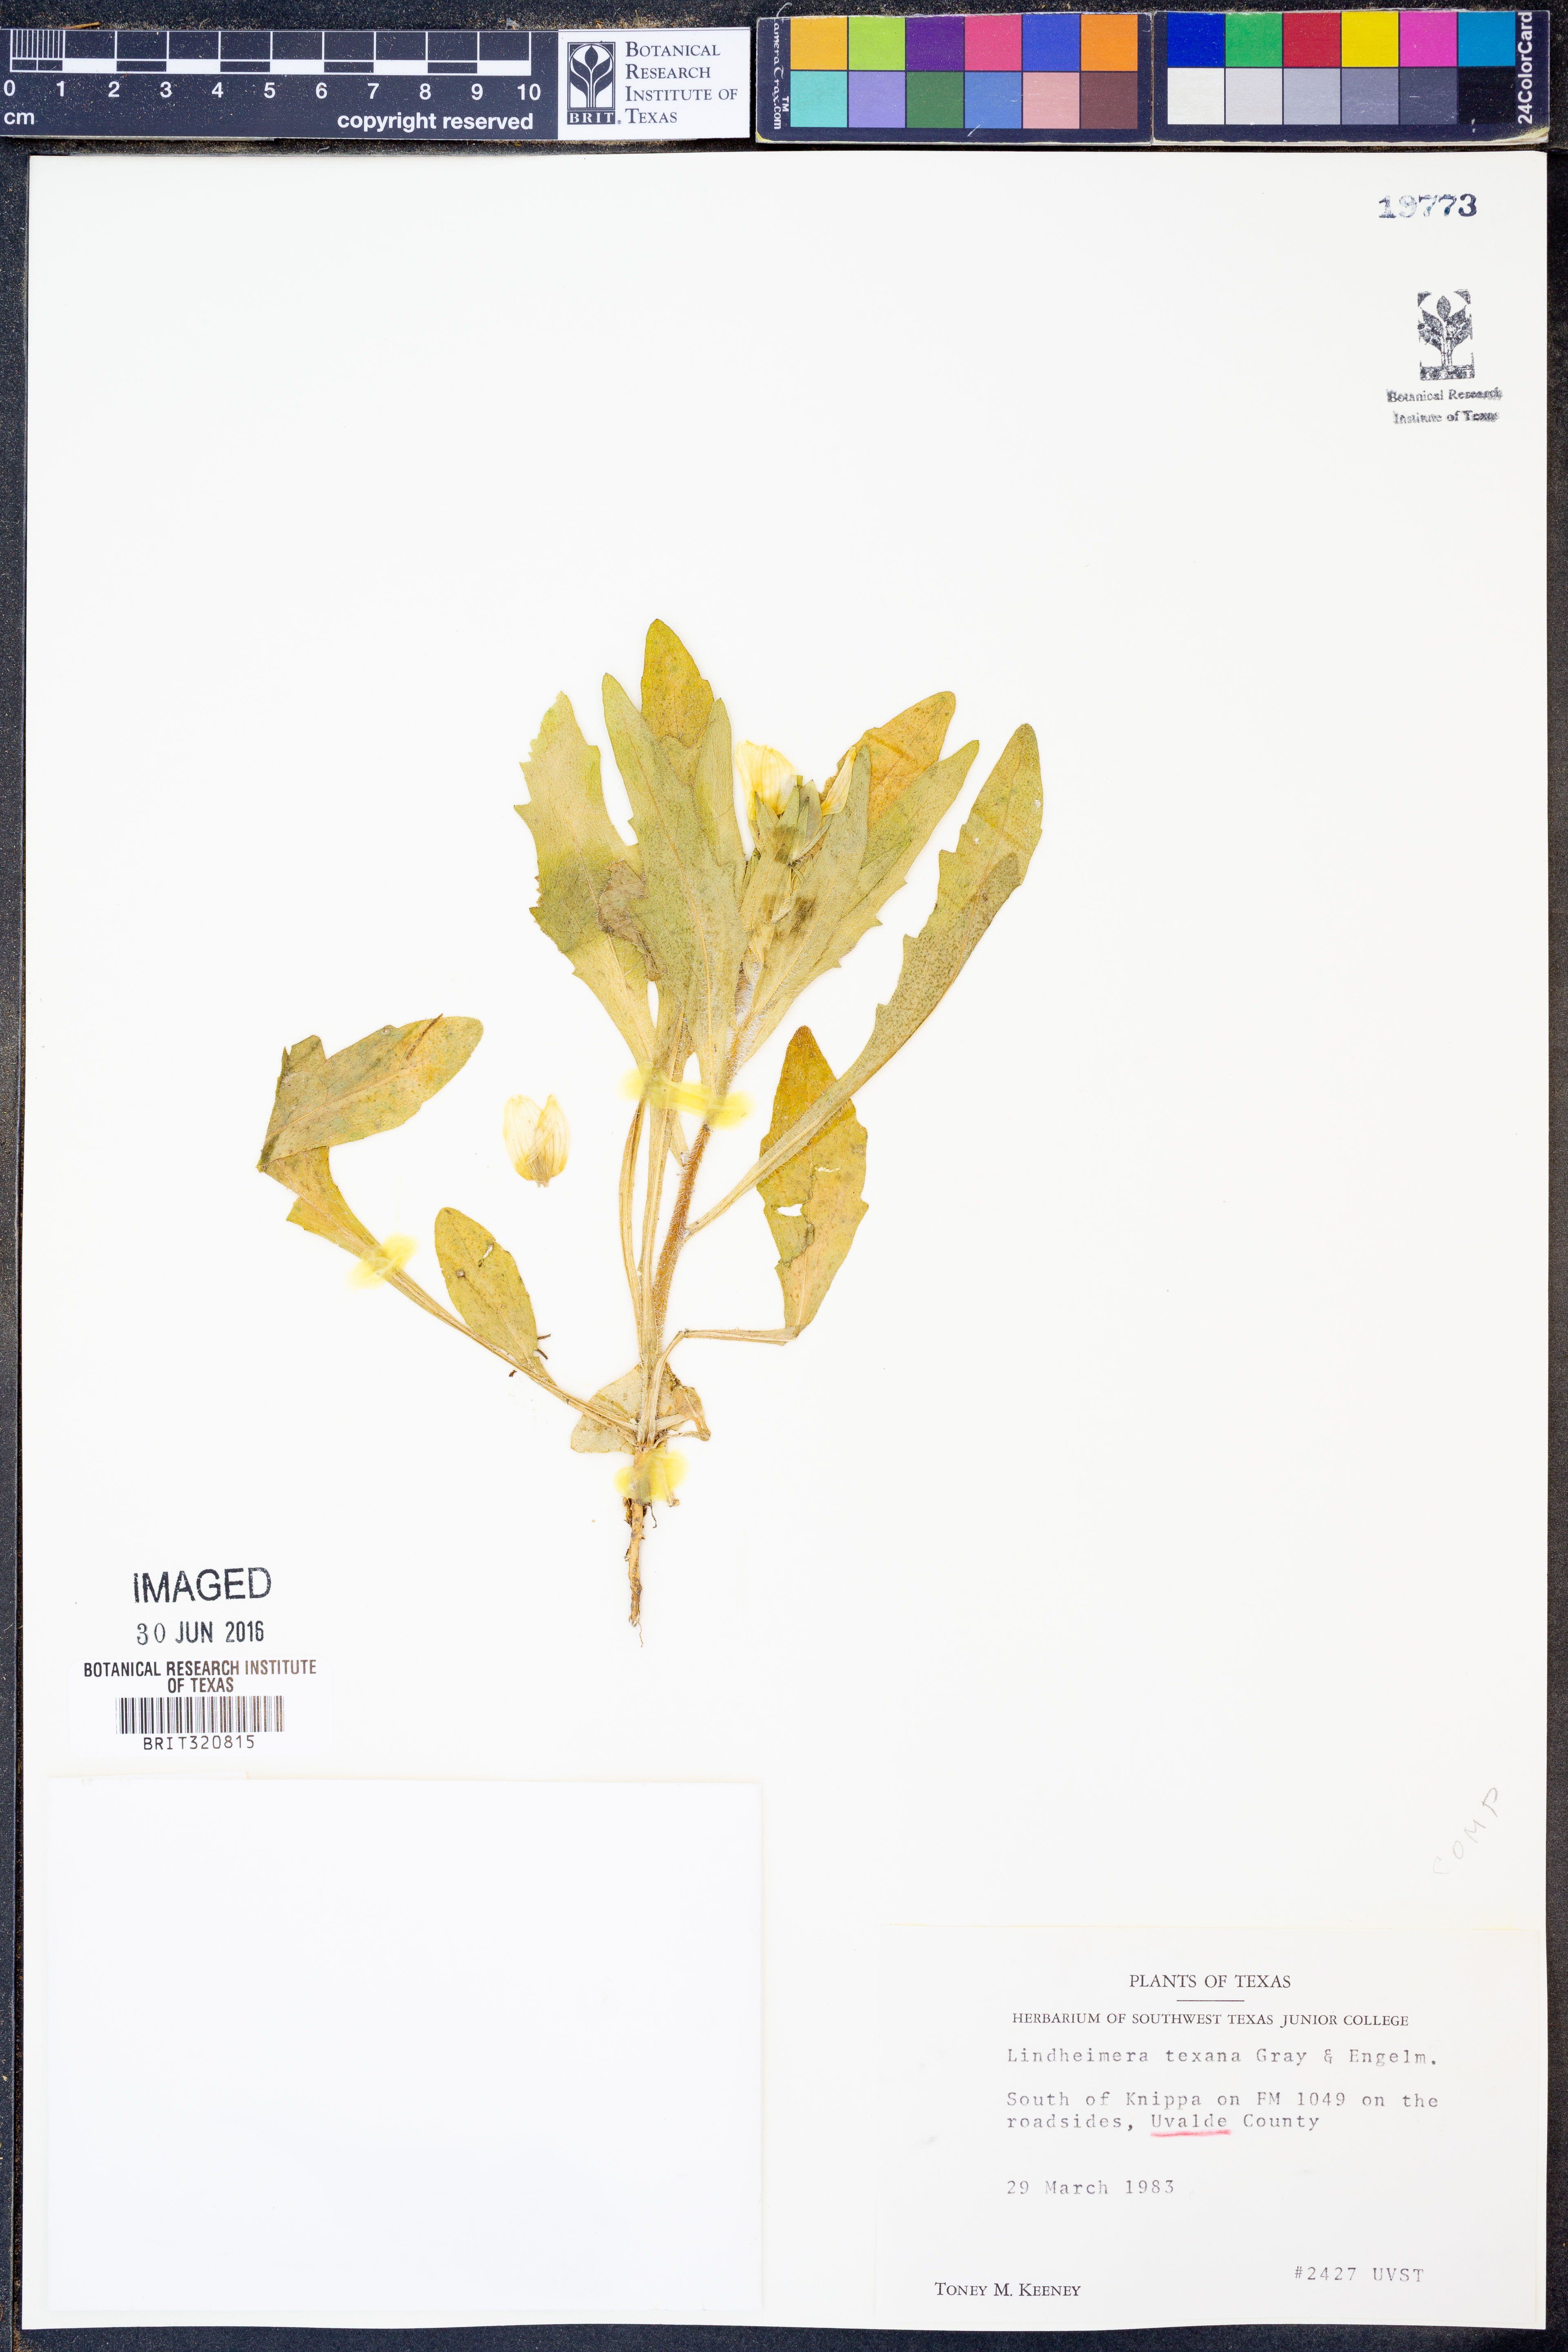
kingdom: Plantae
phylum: Tracheophyta
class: Magnoliopsida
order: Asterales
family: Asteraceae
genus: Lindheimera
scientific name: Lindheimera texana
